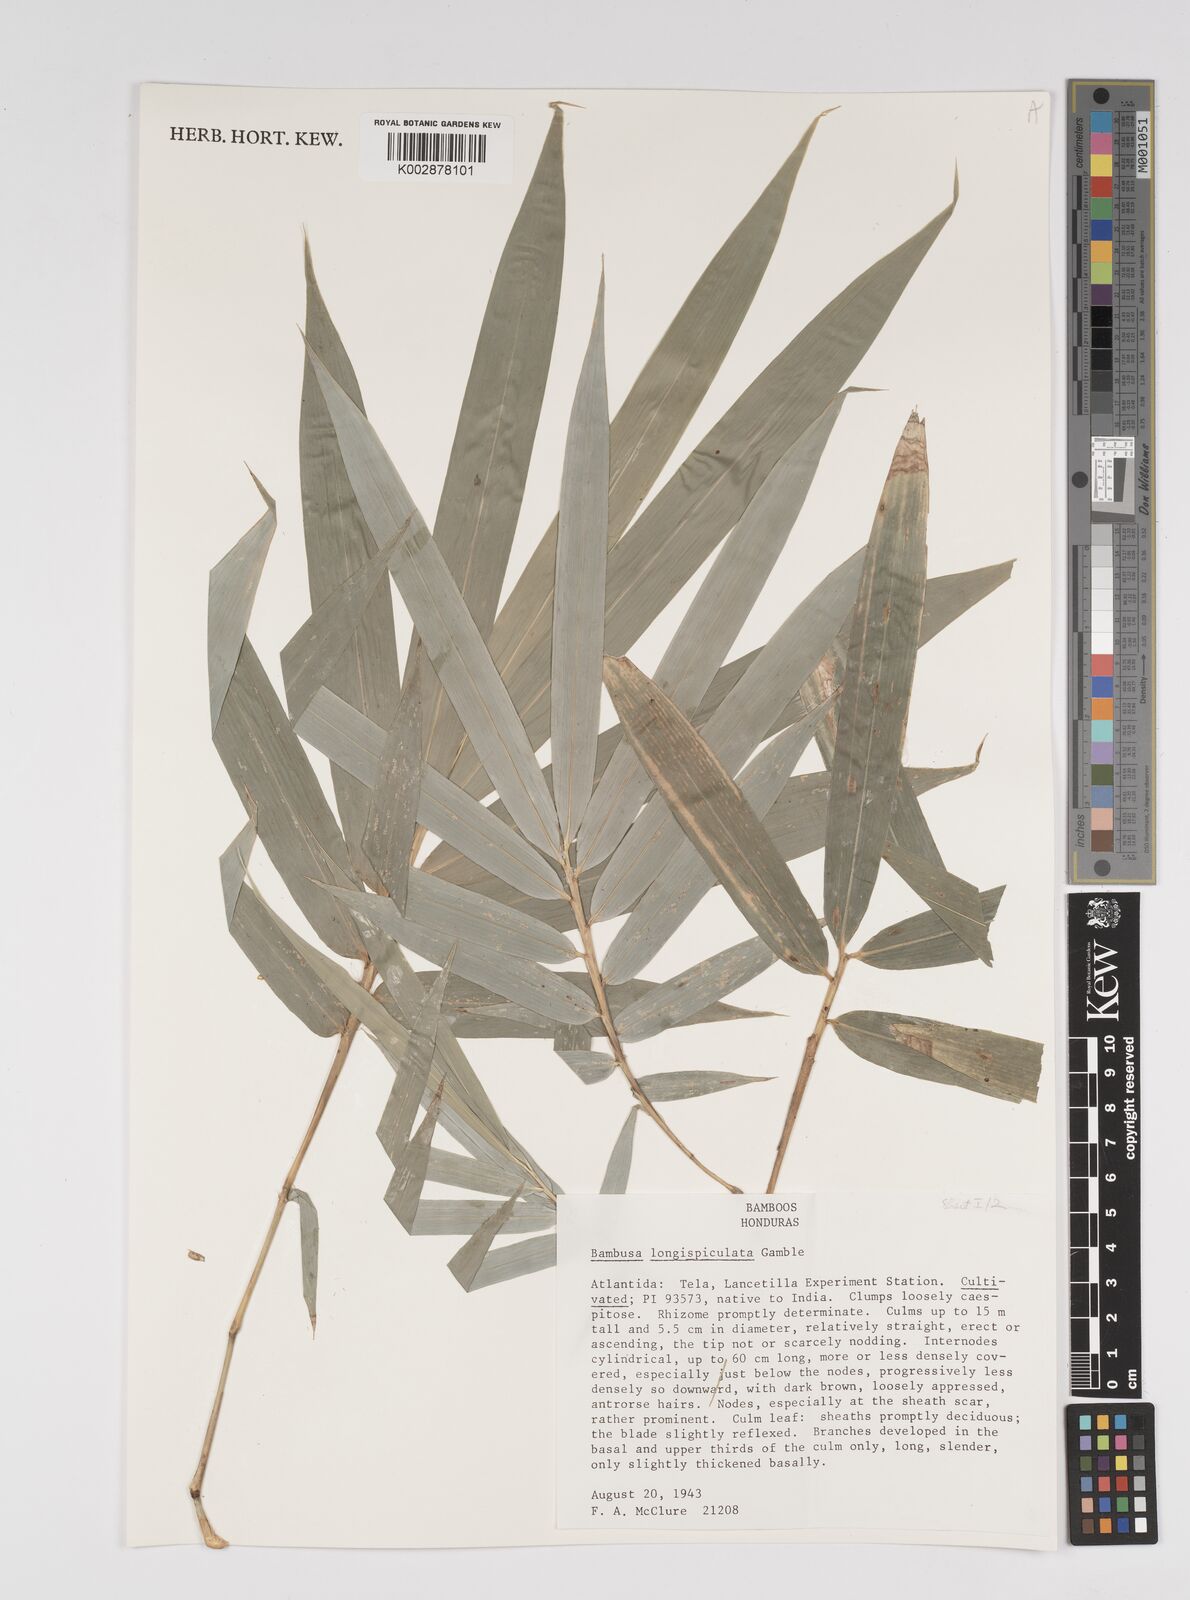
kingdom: Plantae
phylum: Tracheophyta
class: Liliopsida
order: Poales
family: Poaceae
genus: Bambusa
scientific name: Bambusa longispiculata
